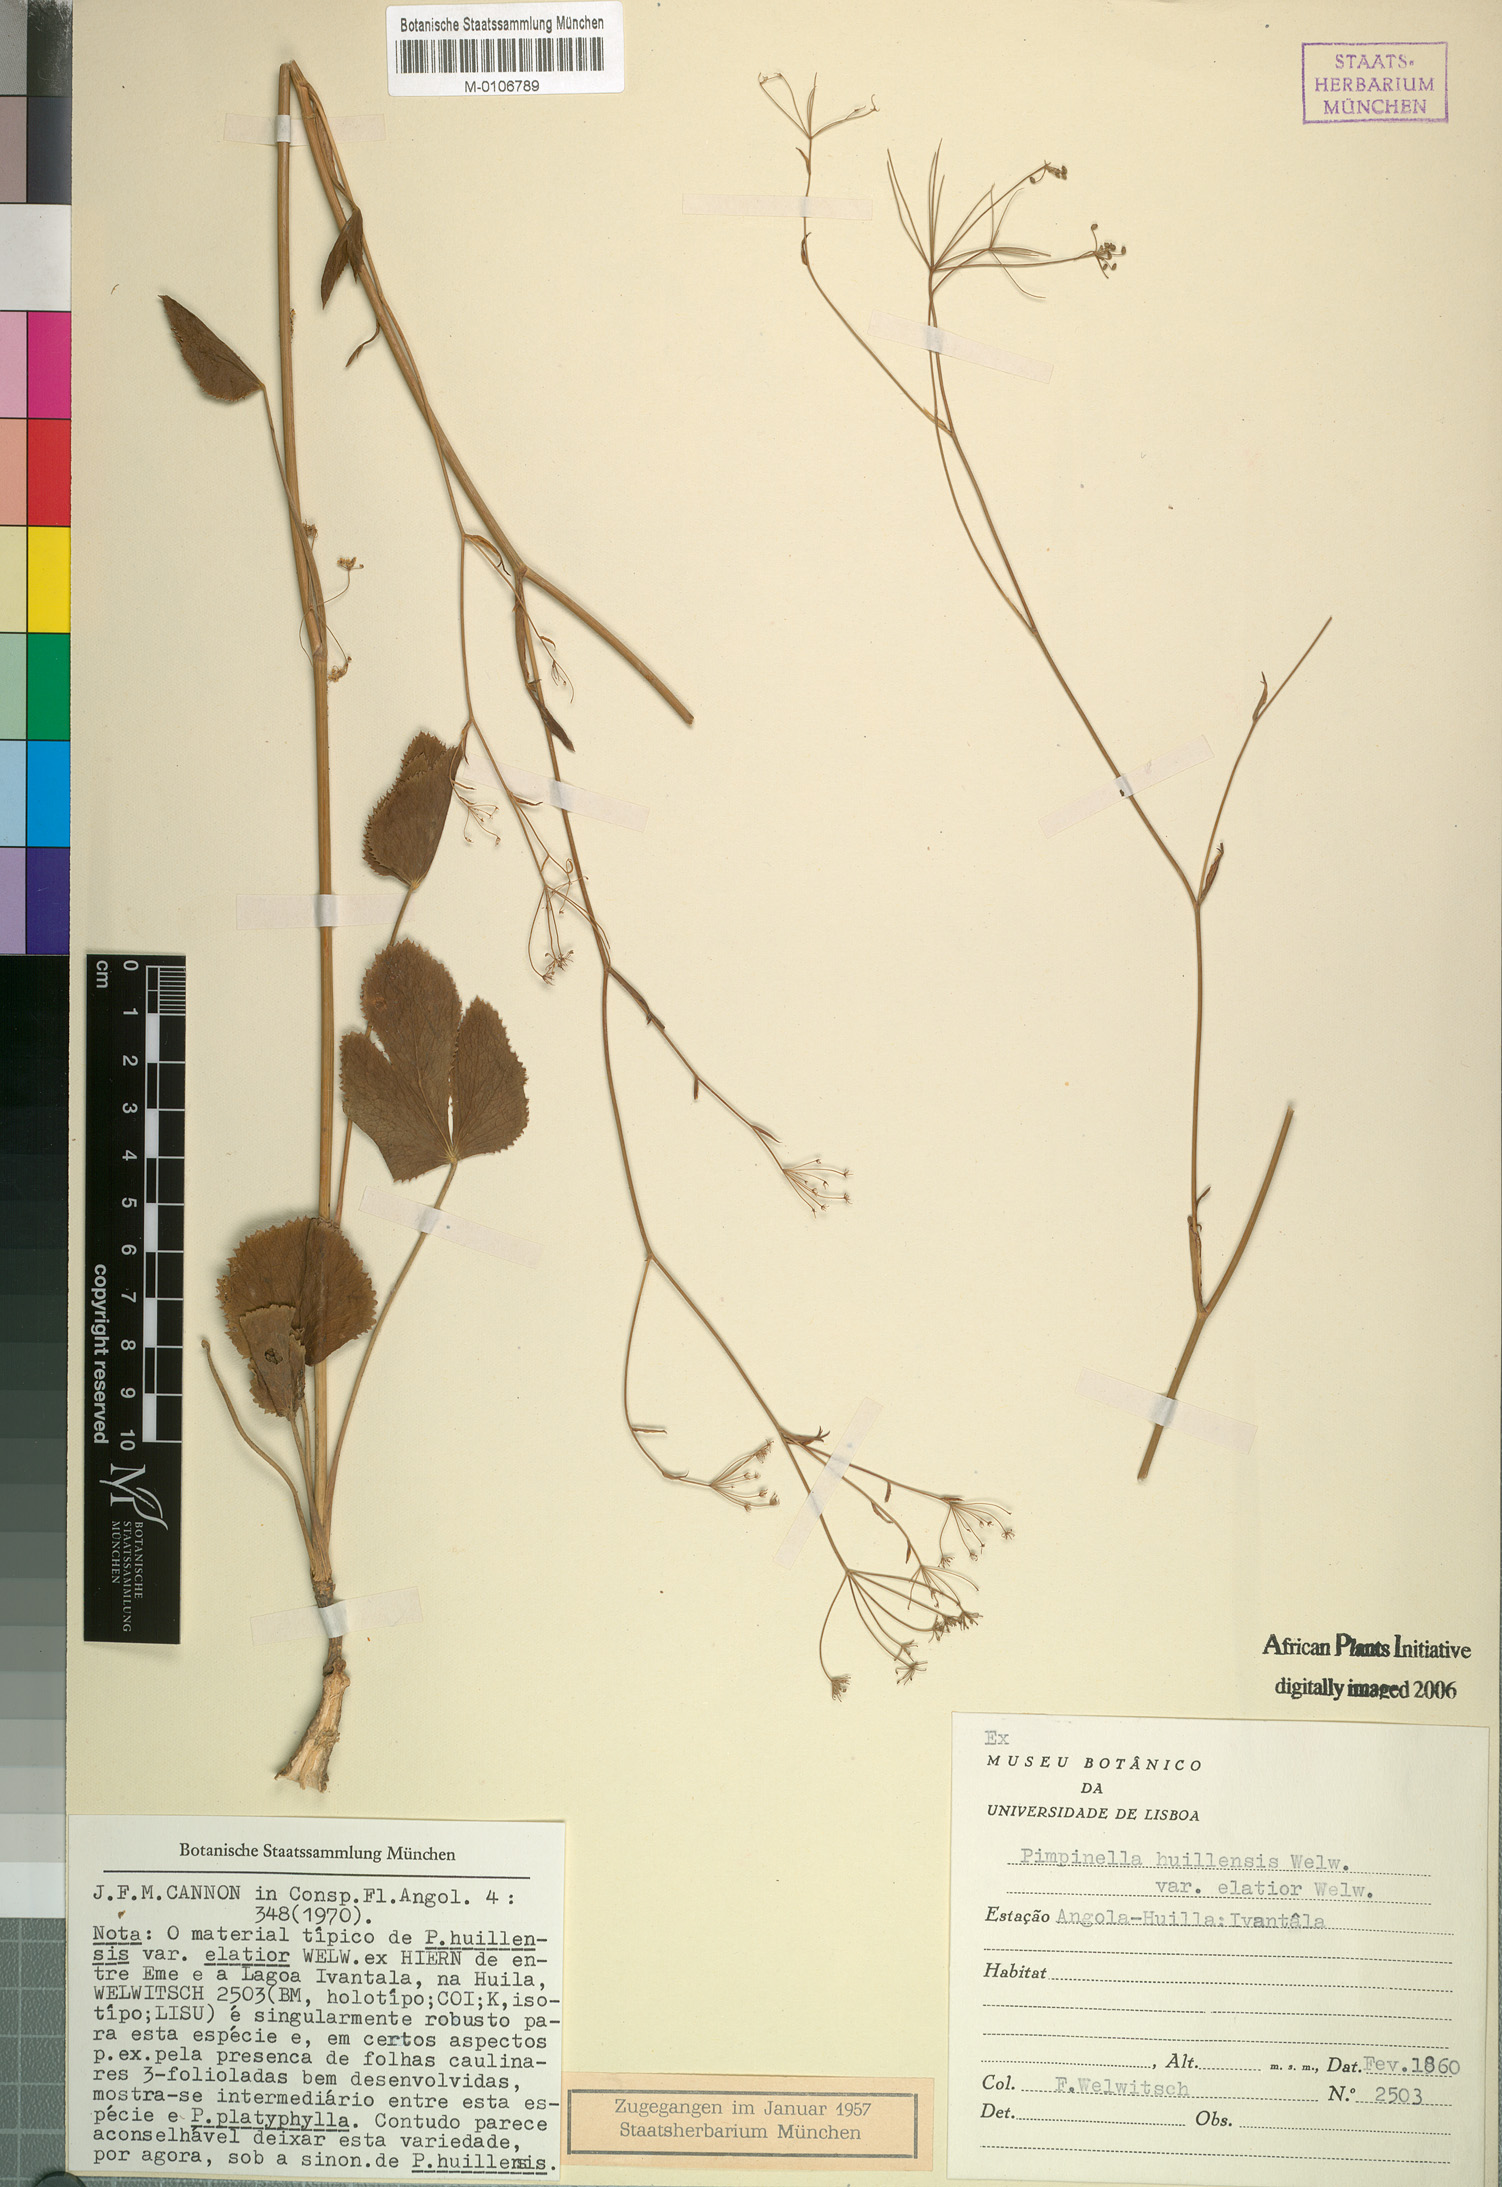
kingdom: Plantae
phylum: Tracheophyta
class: Magnoliopsida
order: Apiales
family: Apiaceae
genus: Pimpinella
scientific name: Pimpinella huillensis
